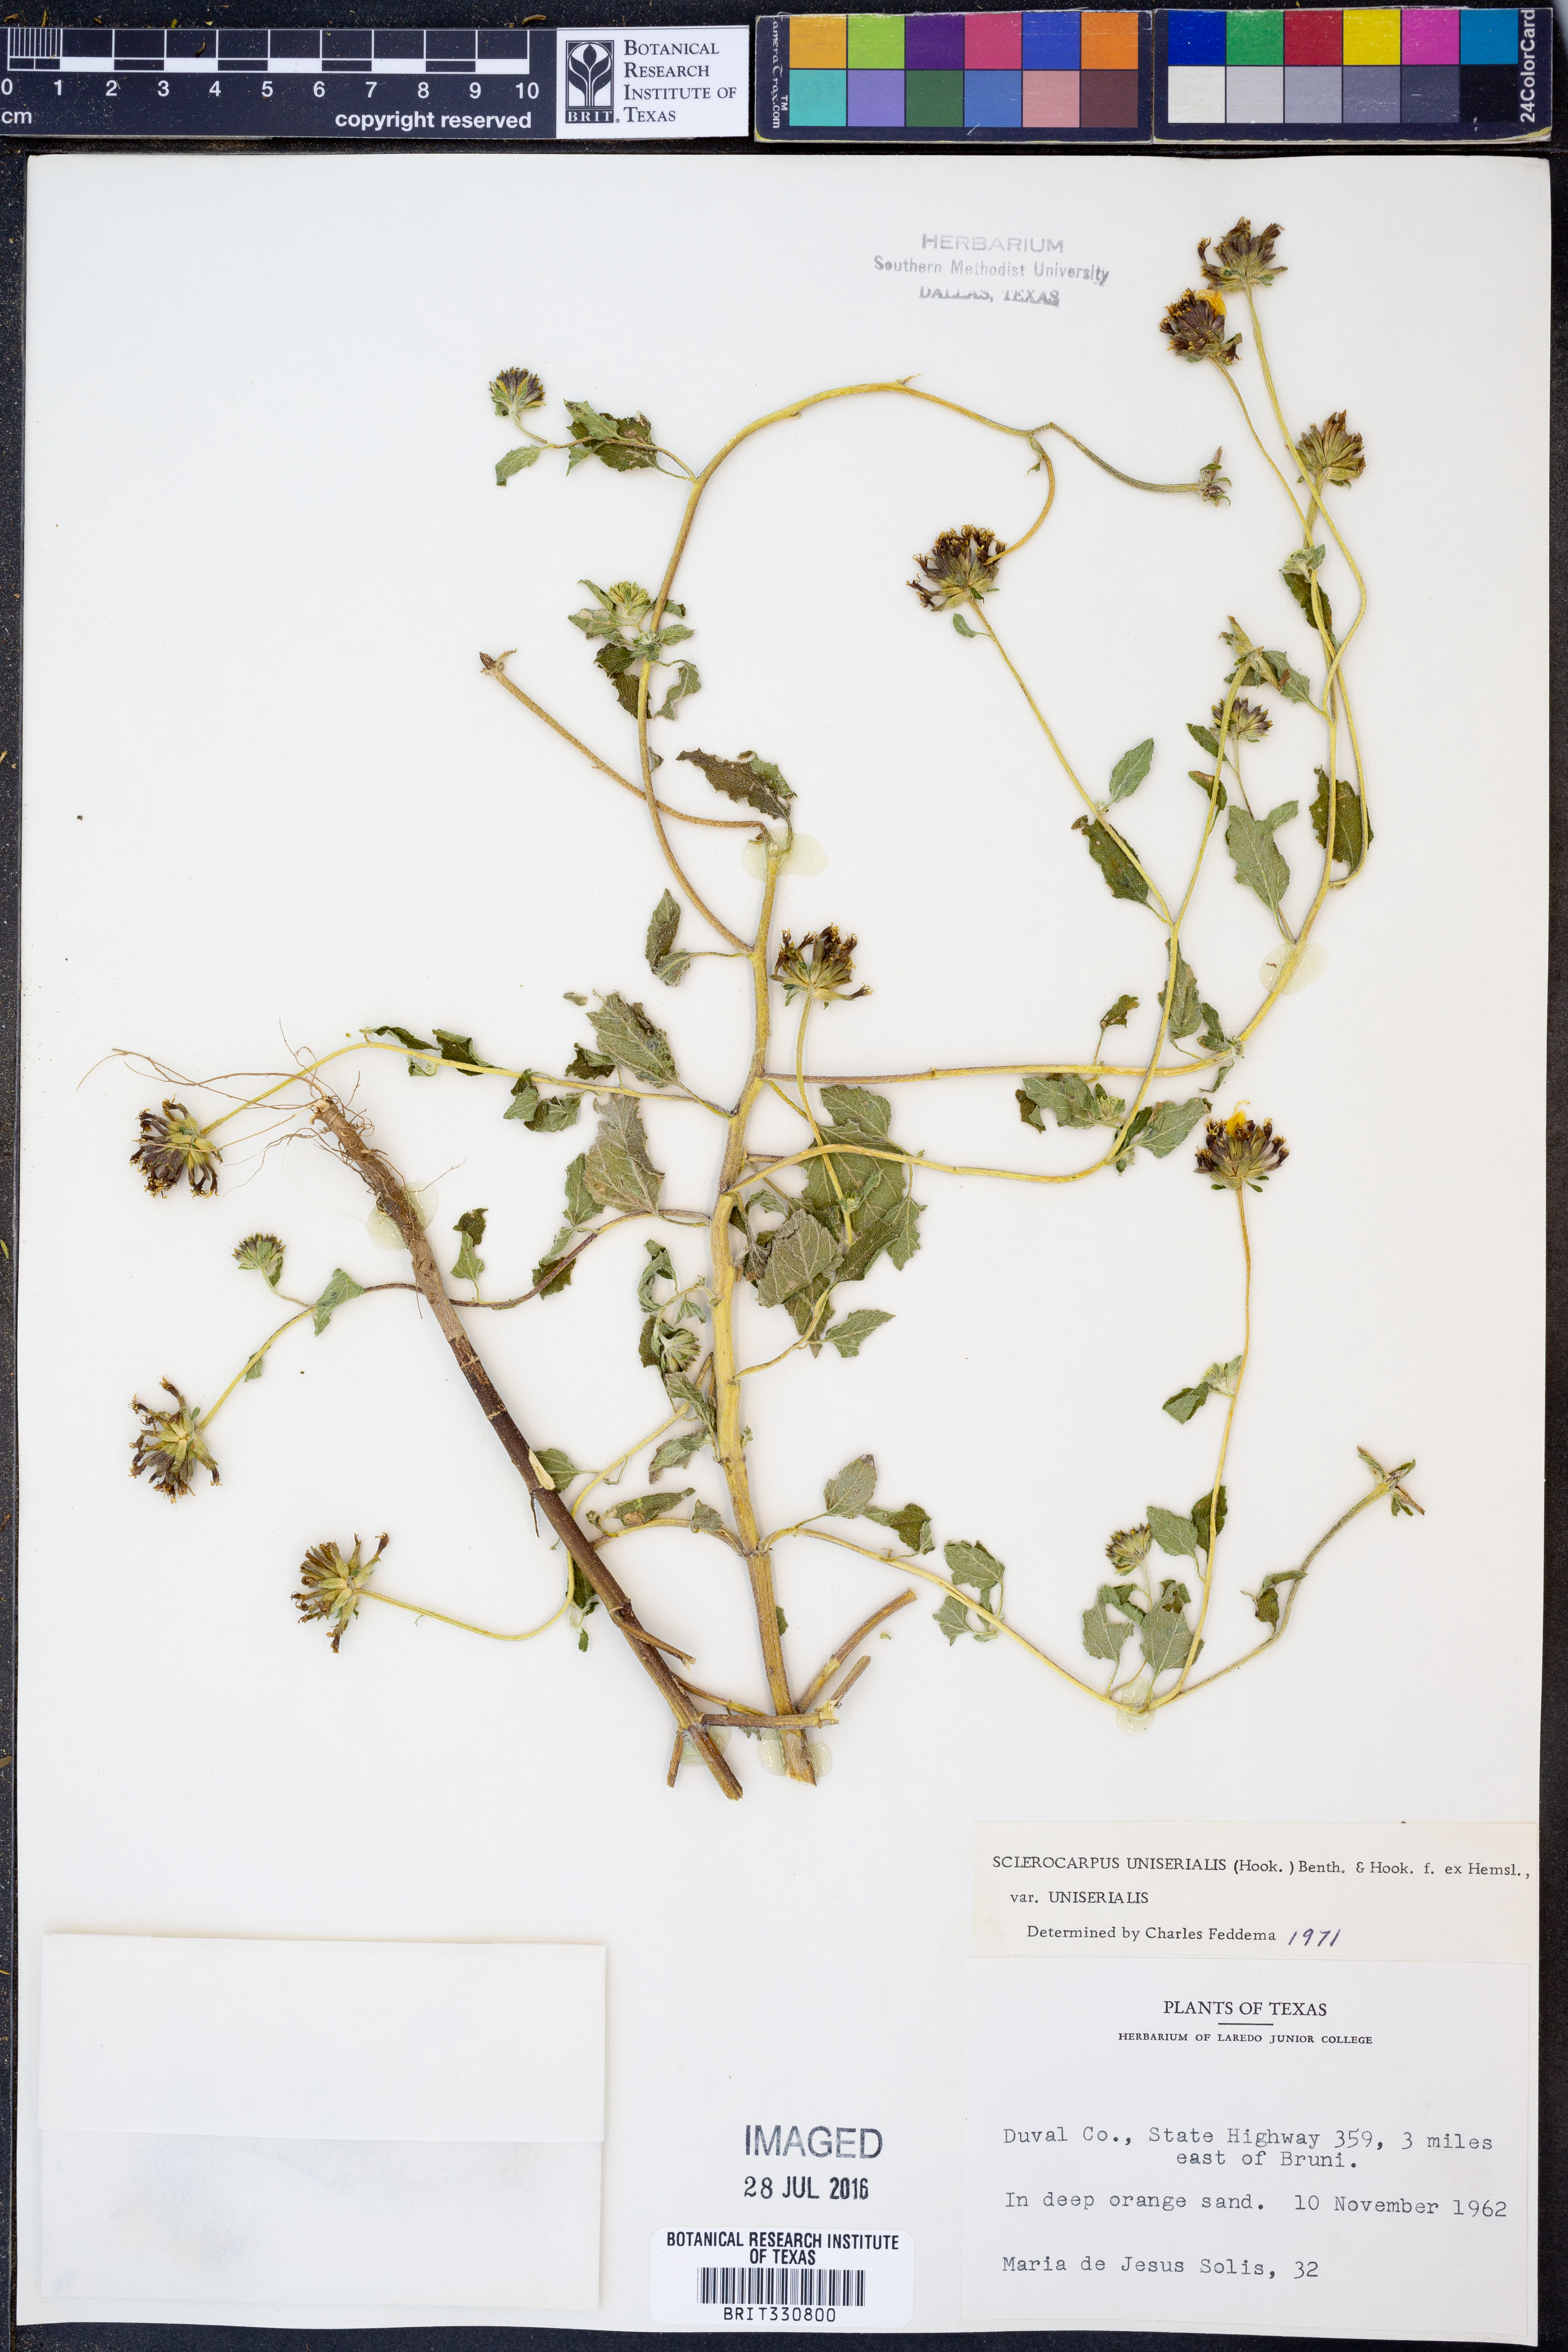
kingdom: Plantae
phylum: Tracheophyta
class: Magnoliopsida
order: Asterales
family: Asteraceae
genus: Sclerocarpus
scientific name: Sclerocarpus uniserialis
